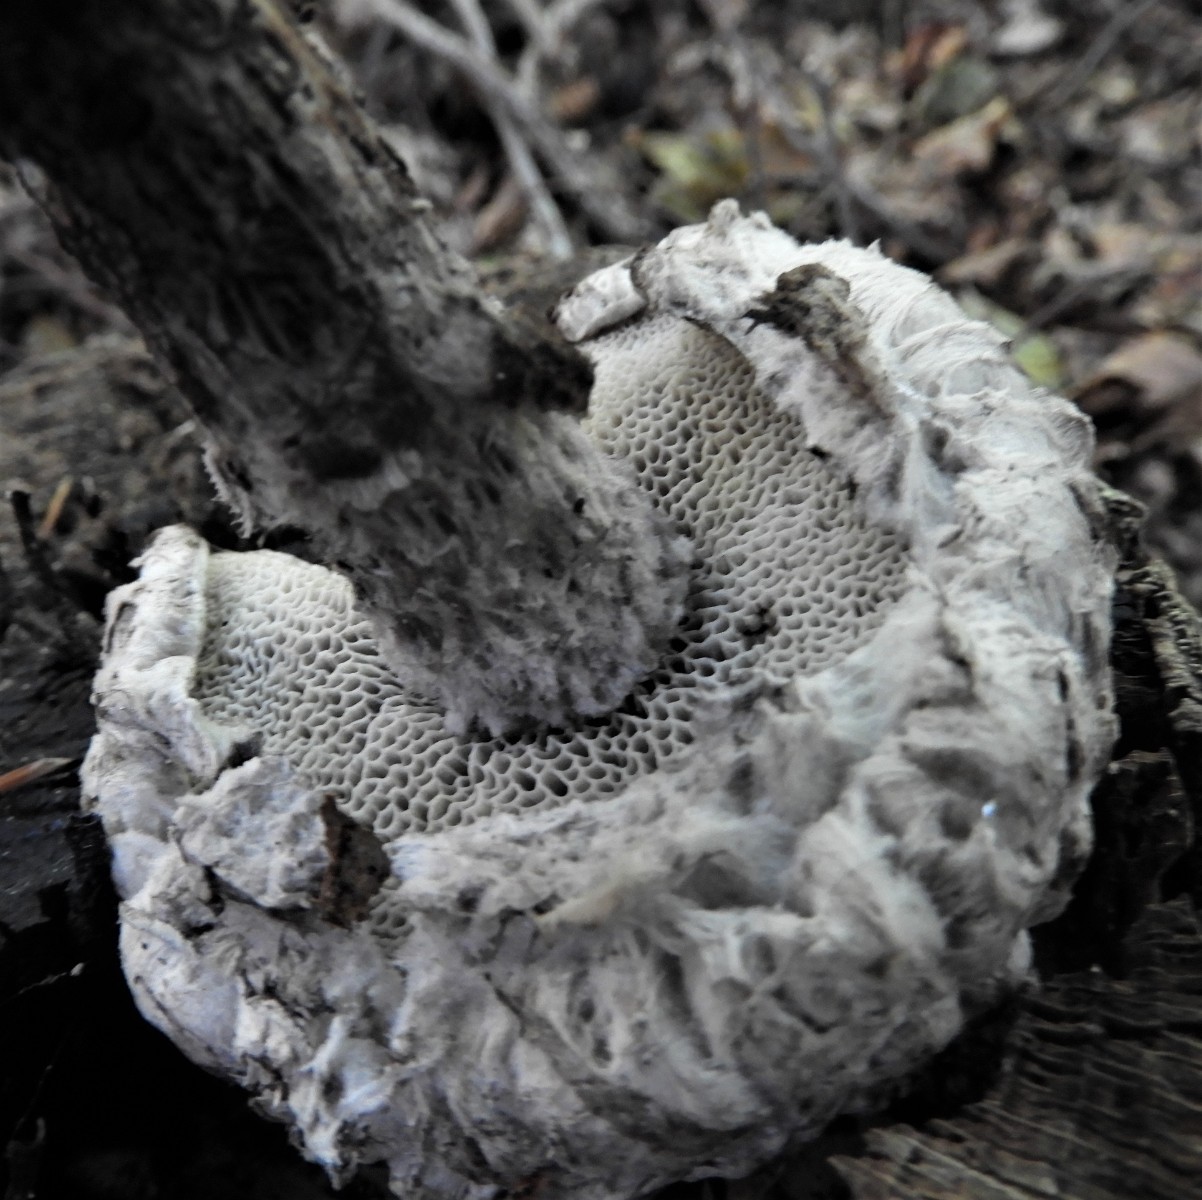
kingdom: Fungi
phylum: Basidiomycota
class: Agaricomycetes
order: Boletales
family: Boletaceae
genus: Strobilomyces
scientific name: Strobilomyces strobilaceus
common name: koglerørhat
